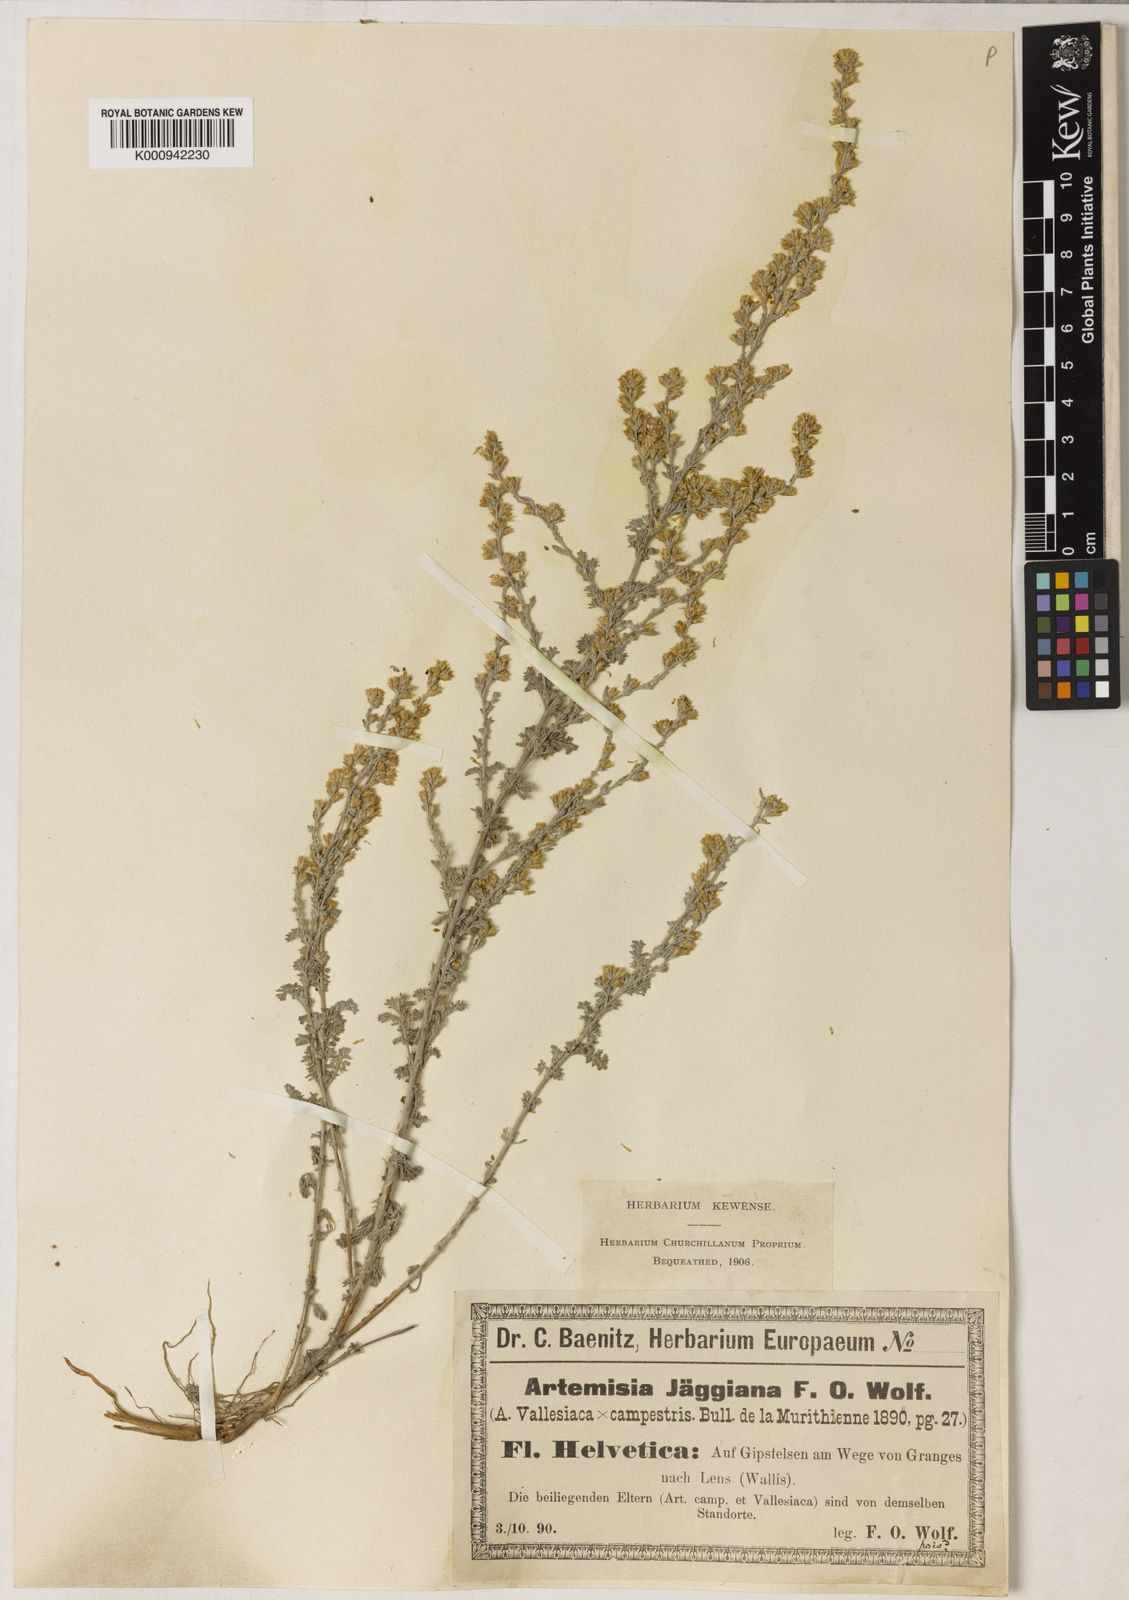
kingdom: Plantae
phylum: Tracheophyta
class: Magnoliopsida
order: Asterales
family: Asteraceae
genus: Artemisia
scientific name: Artemisia vallesiaca
